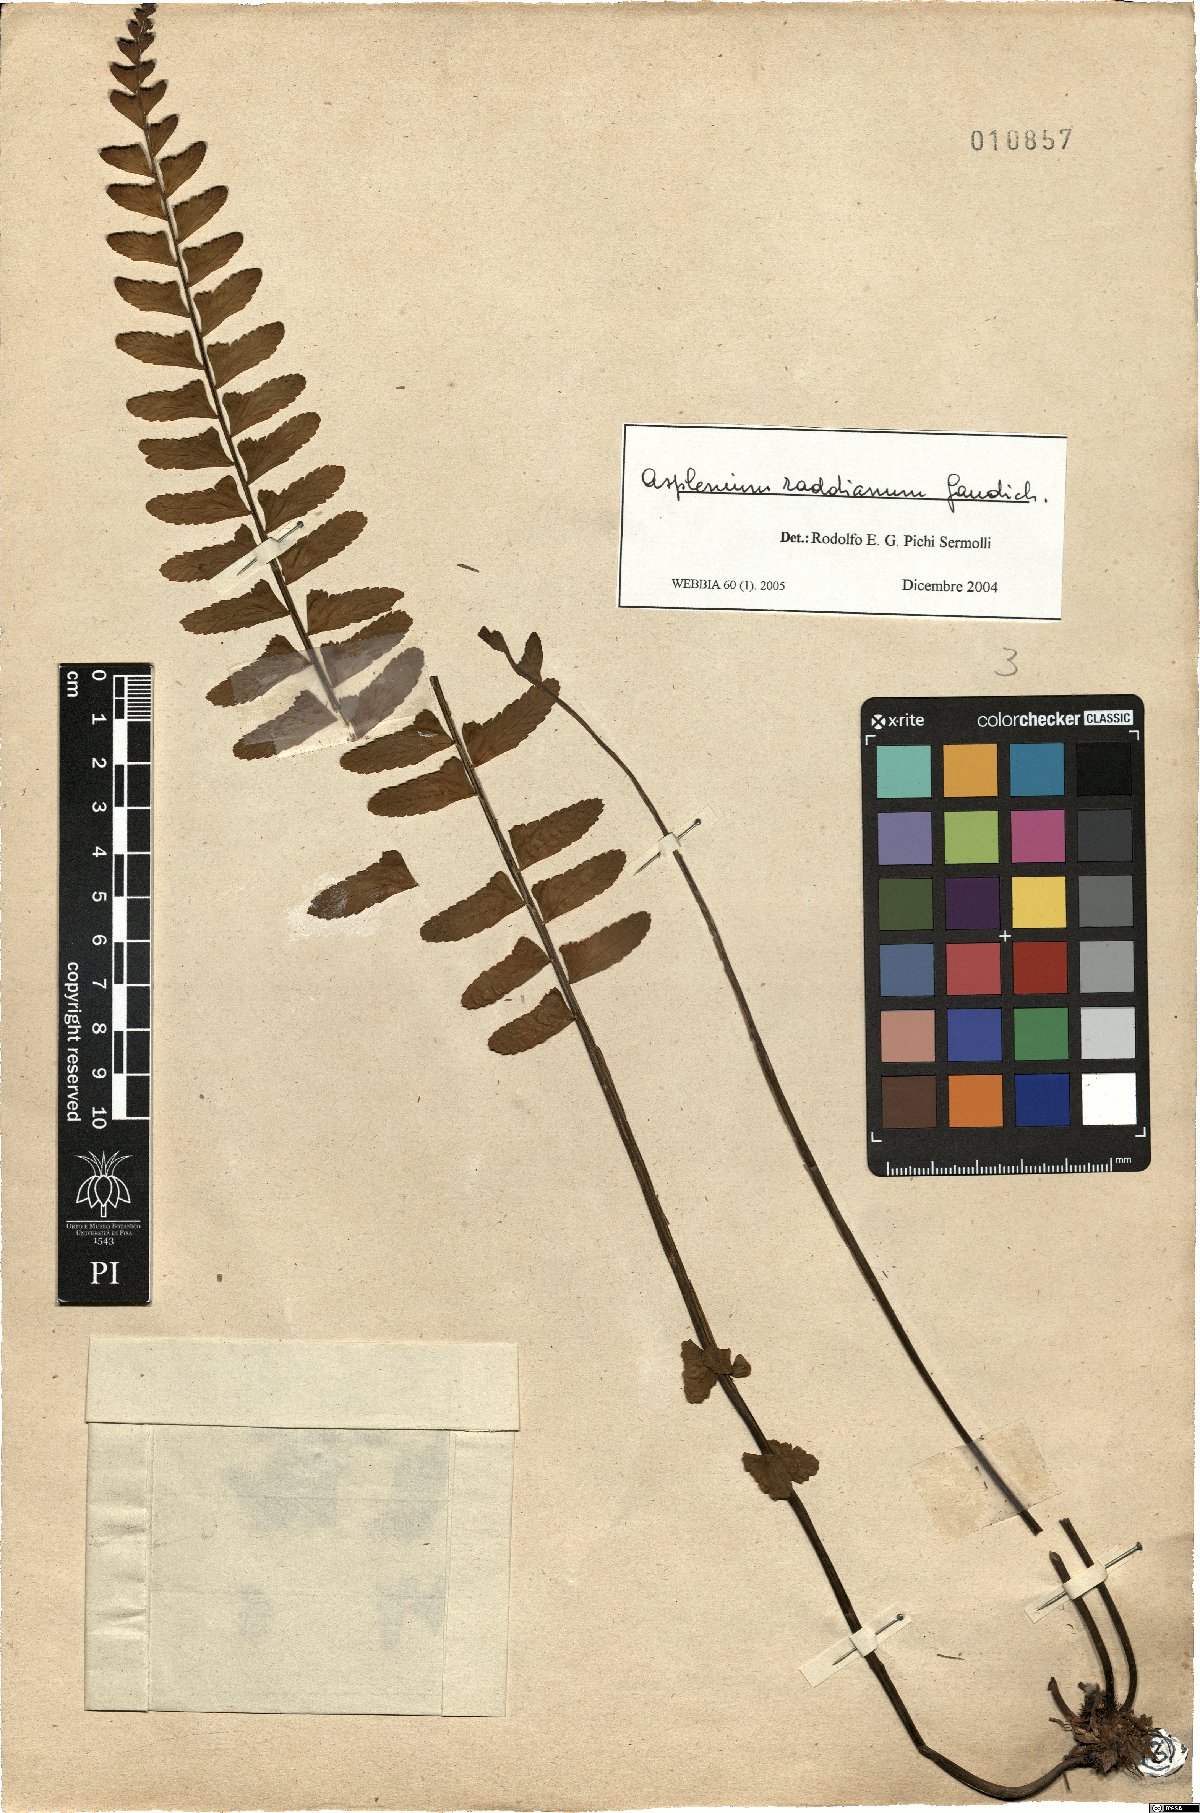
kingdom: Plantae
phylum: Tracheophyta
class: Polypodiopsida
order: Polypodiales
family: Aspleniaceae
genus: Asplenium
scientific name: Asplenium raddianum
